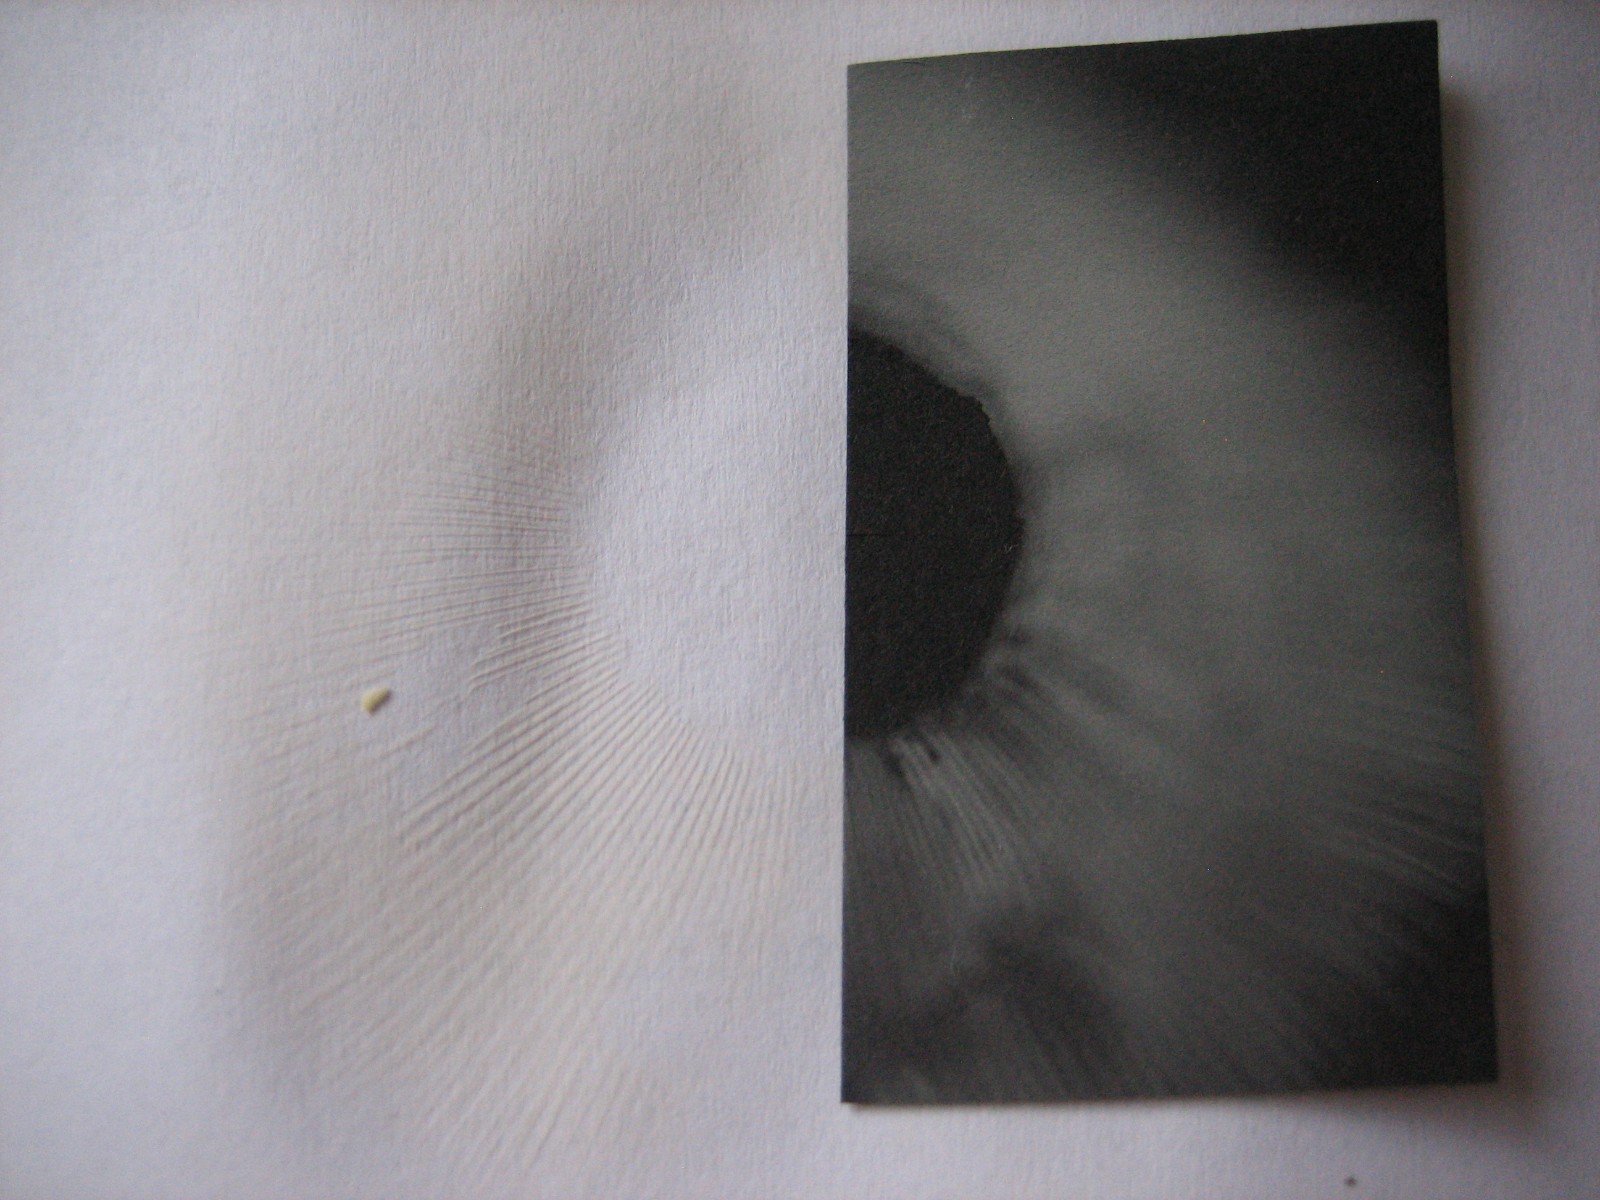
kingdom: Fungi
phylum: Basidiomycota
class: Agaricomycetes
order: Russulales
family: Russulaceae
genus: Russula
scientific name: Russula
